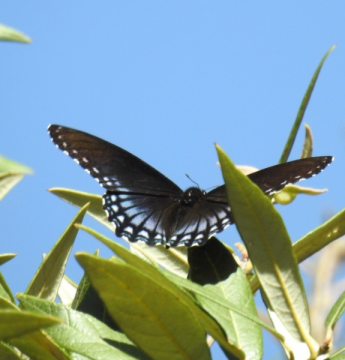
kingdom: Animalia
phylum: Arthropoda
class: Insecta
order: Lepidoptera
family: Nymphalidae
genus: Limenitis
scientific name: Limenitis arthemis
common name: Red-spotted Admiral
